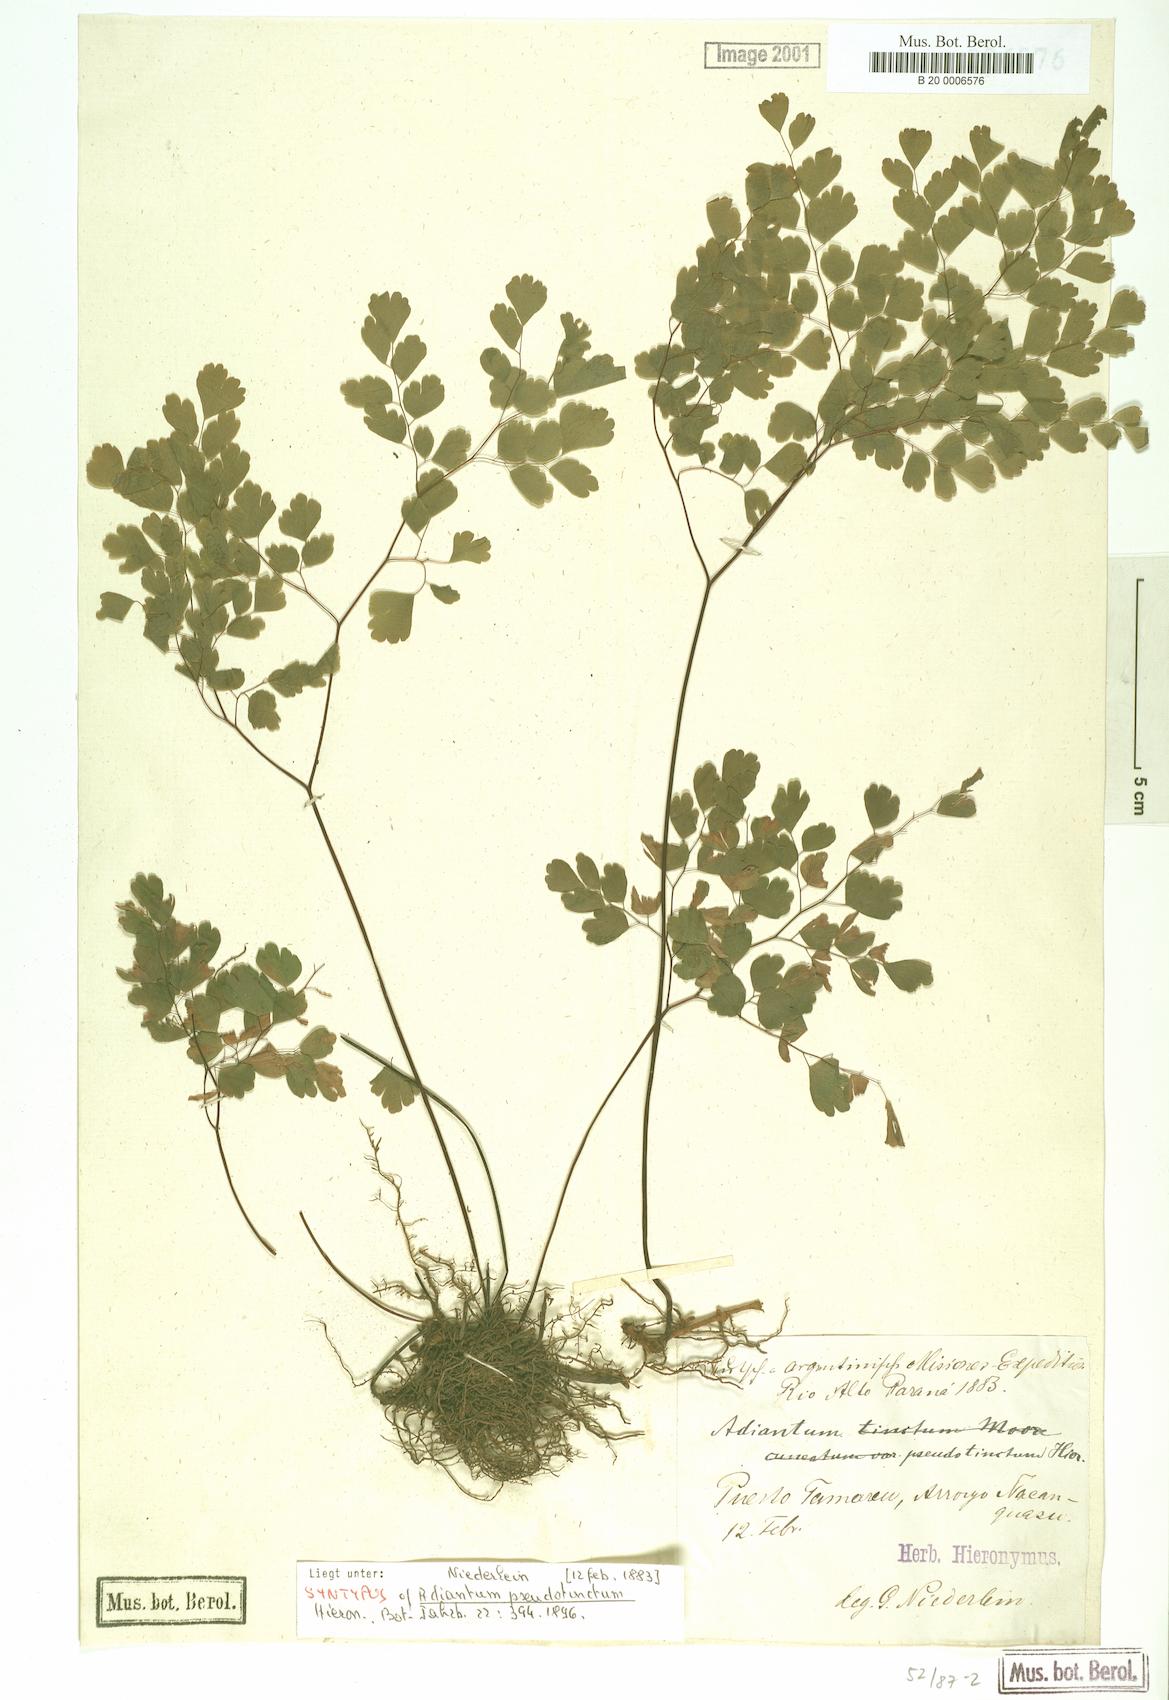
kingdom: Plantae
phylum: Tracheophyta
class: Polypodiopsida
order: Polypodiales
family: Pteridaceae
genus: Adiantum
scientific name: Adiantum pseudotinctum
